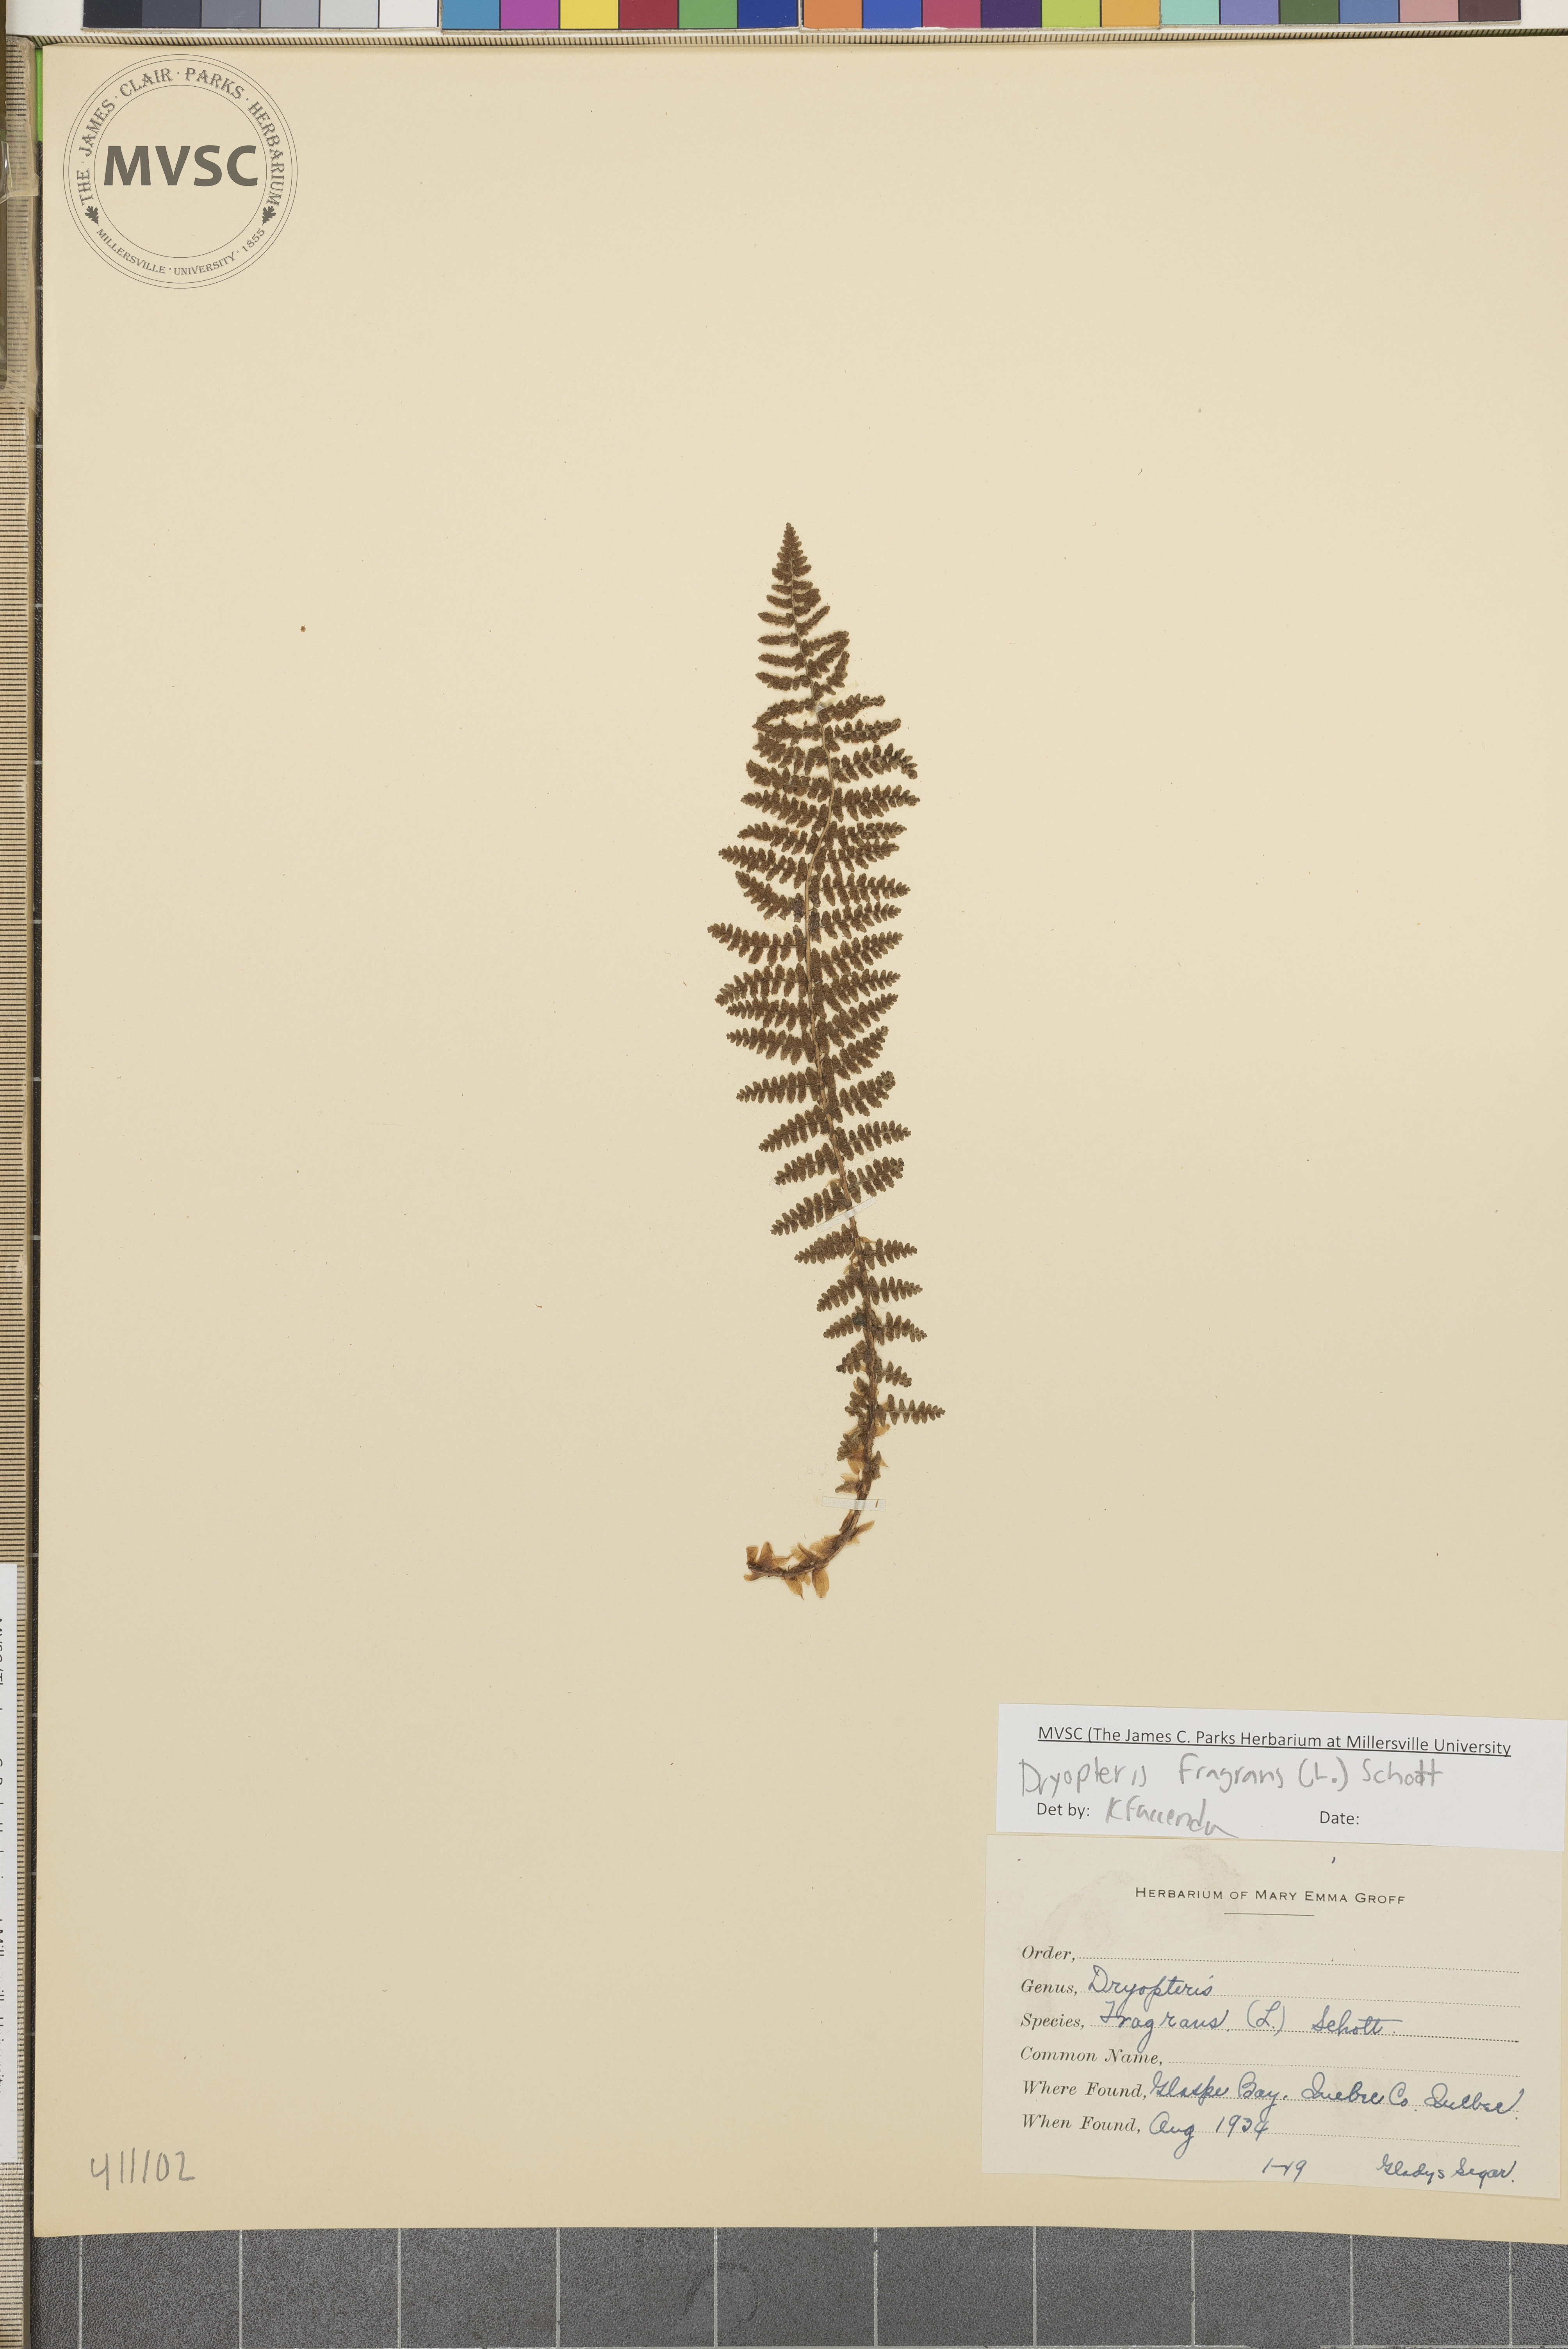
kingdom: Plantae
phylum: Tracheophyta
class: Polypodiopsida
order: Polypodiales
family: Dryopteridaceae
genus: Dryopteris
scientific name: Dryopteris fragrans
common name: Fragrant wood fern
